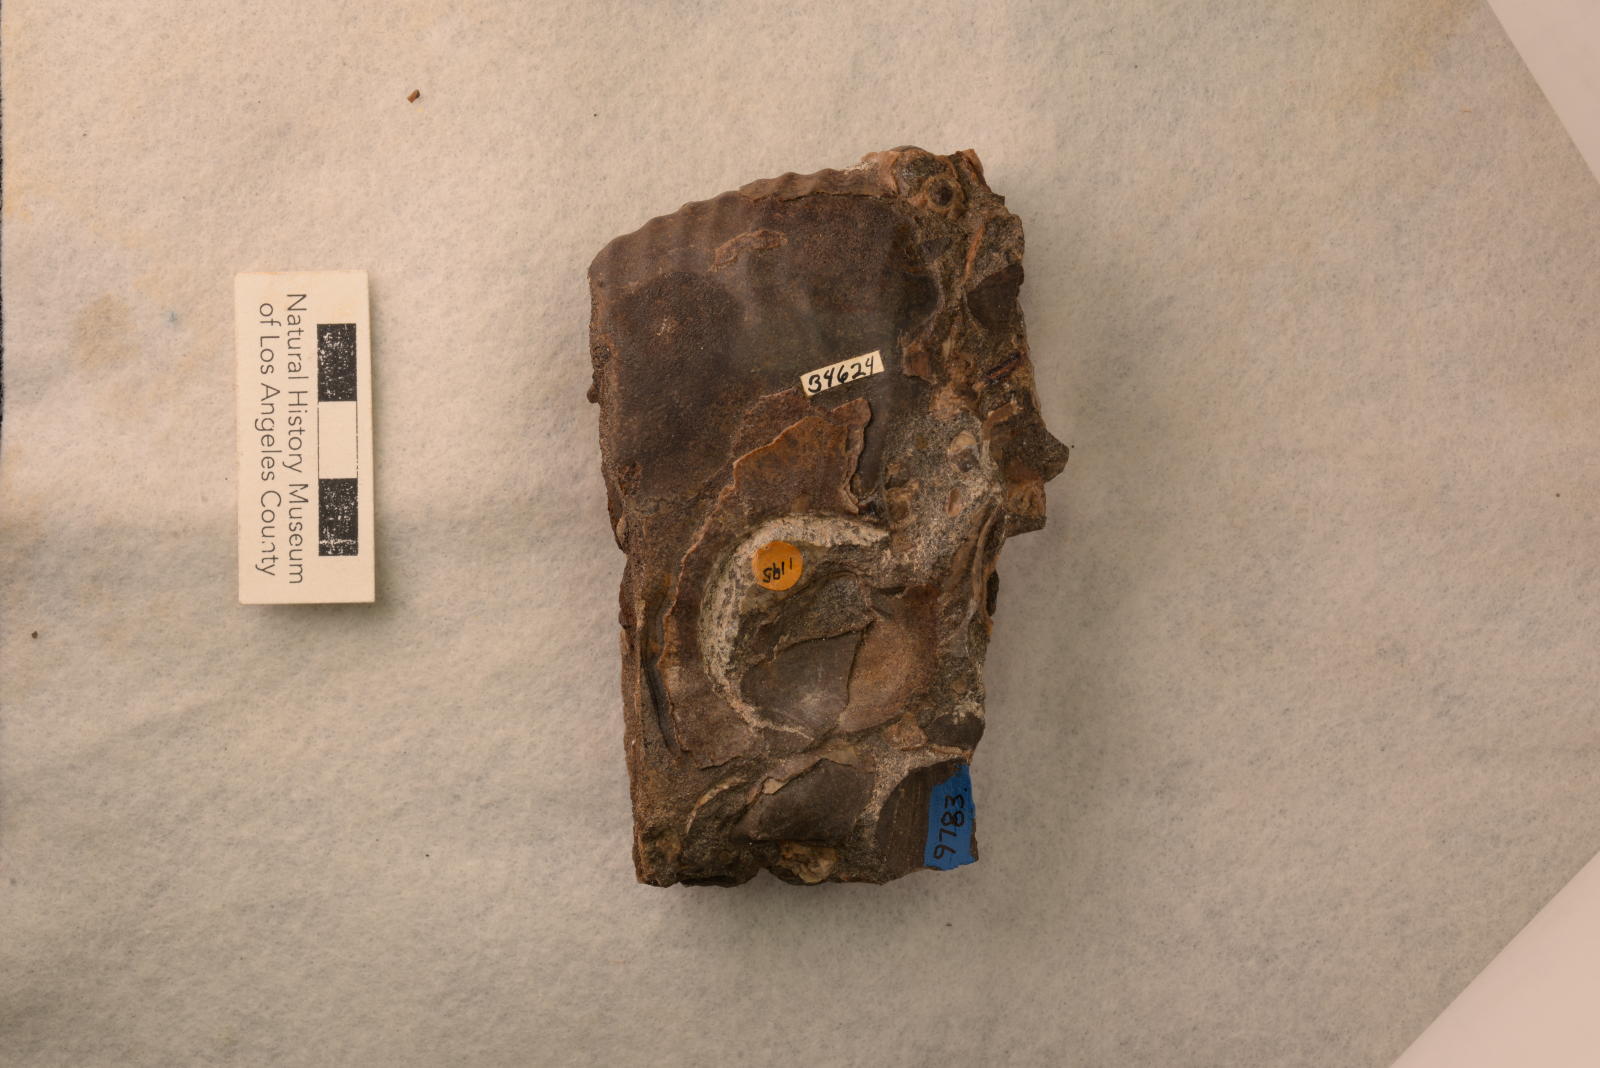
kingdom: Animalia
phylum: Mollusca
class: Cephalopoda
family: Pachydiscidae
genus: Pachydiscus
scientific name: Pachydiscus ashlandicus
